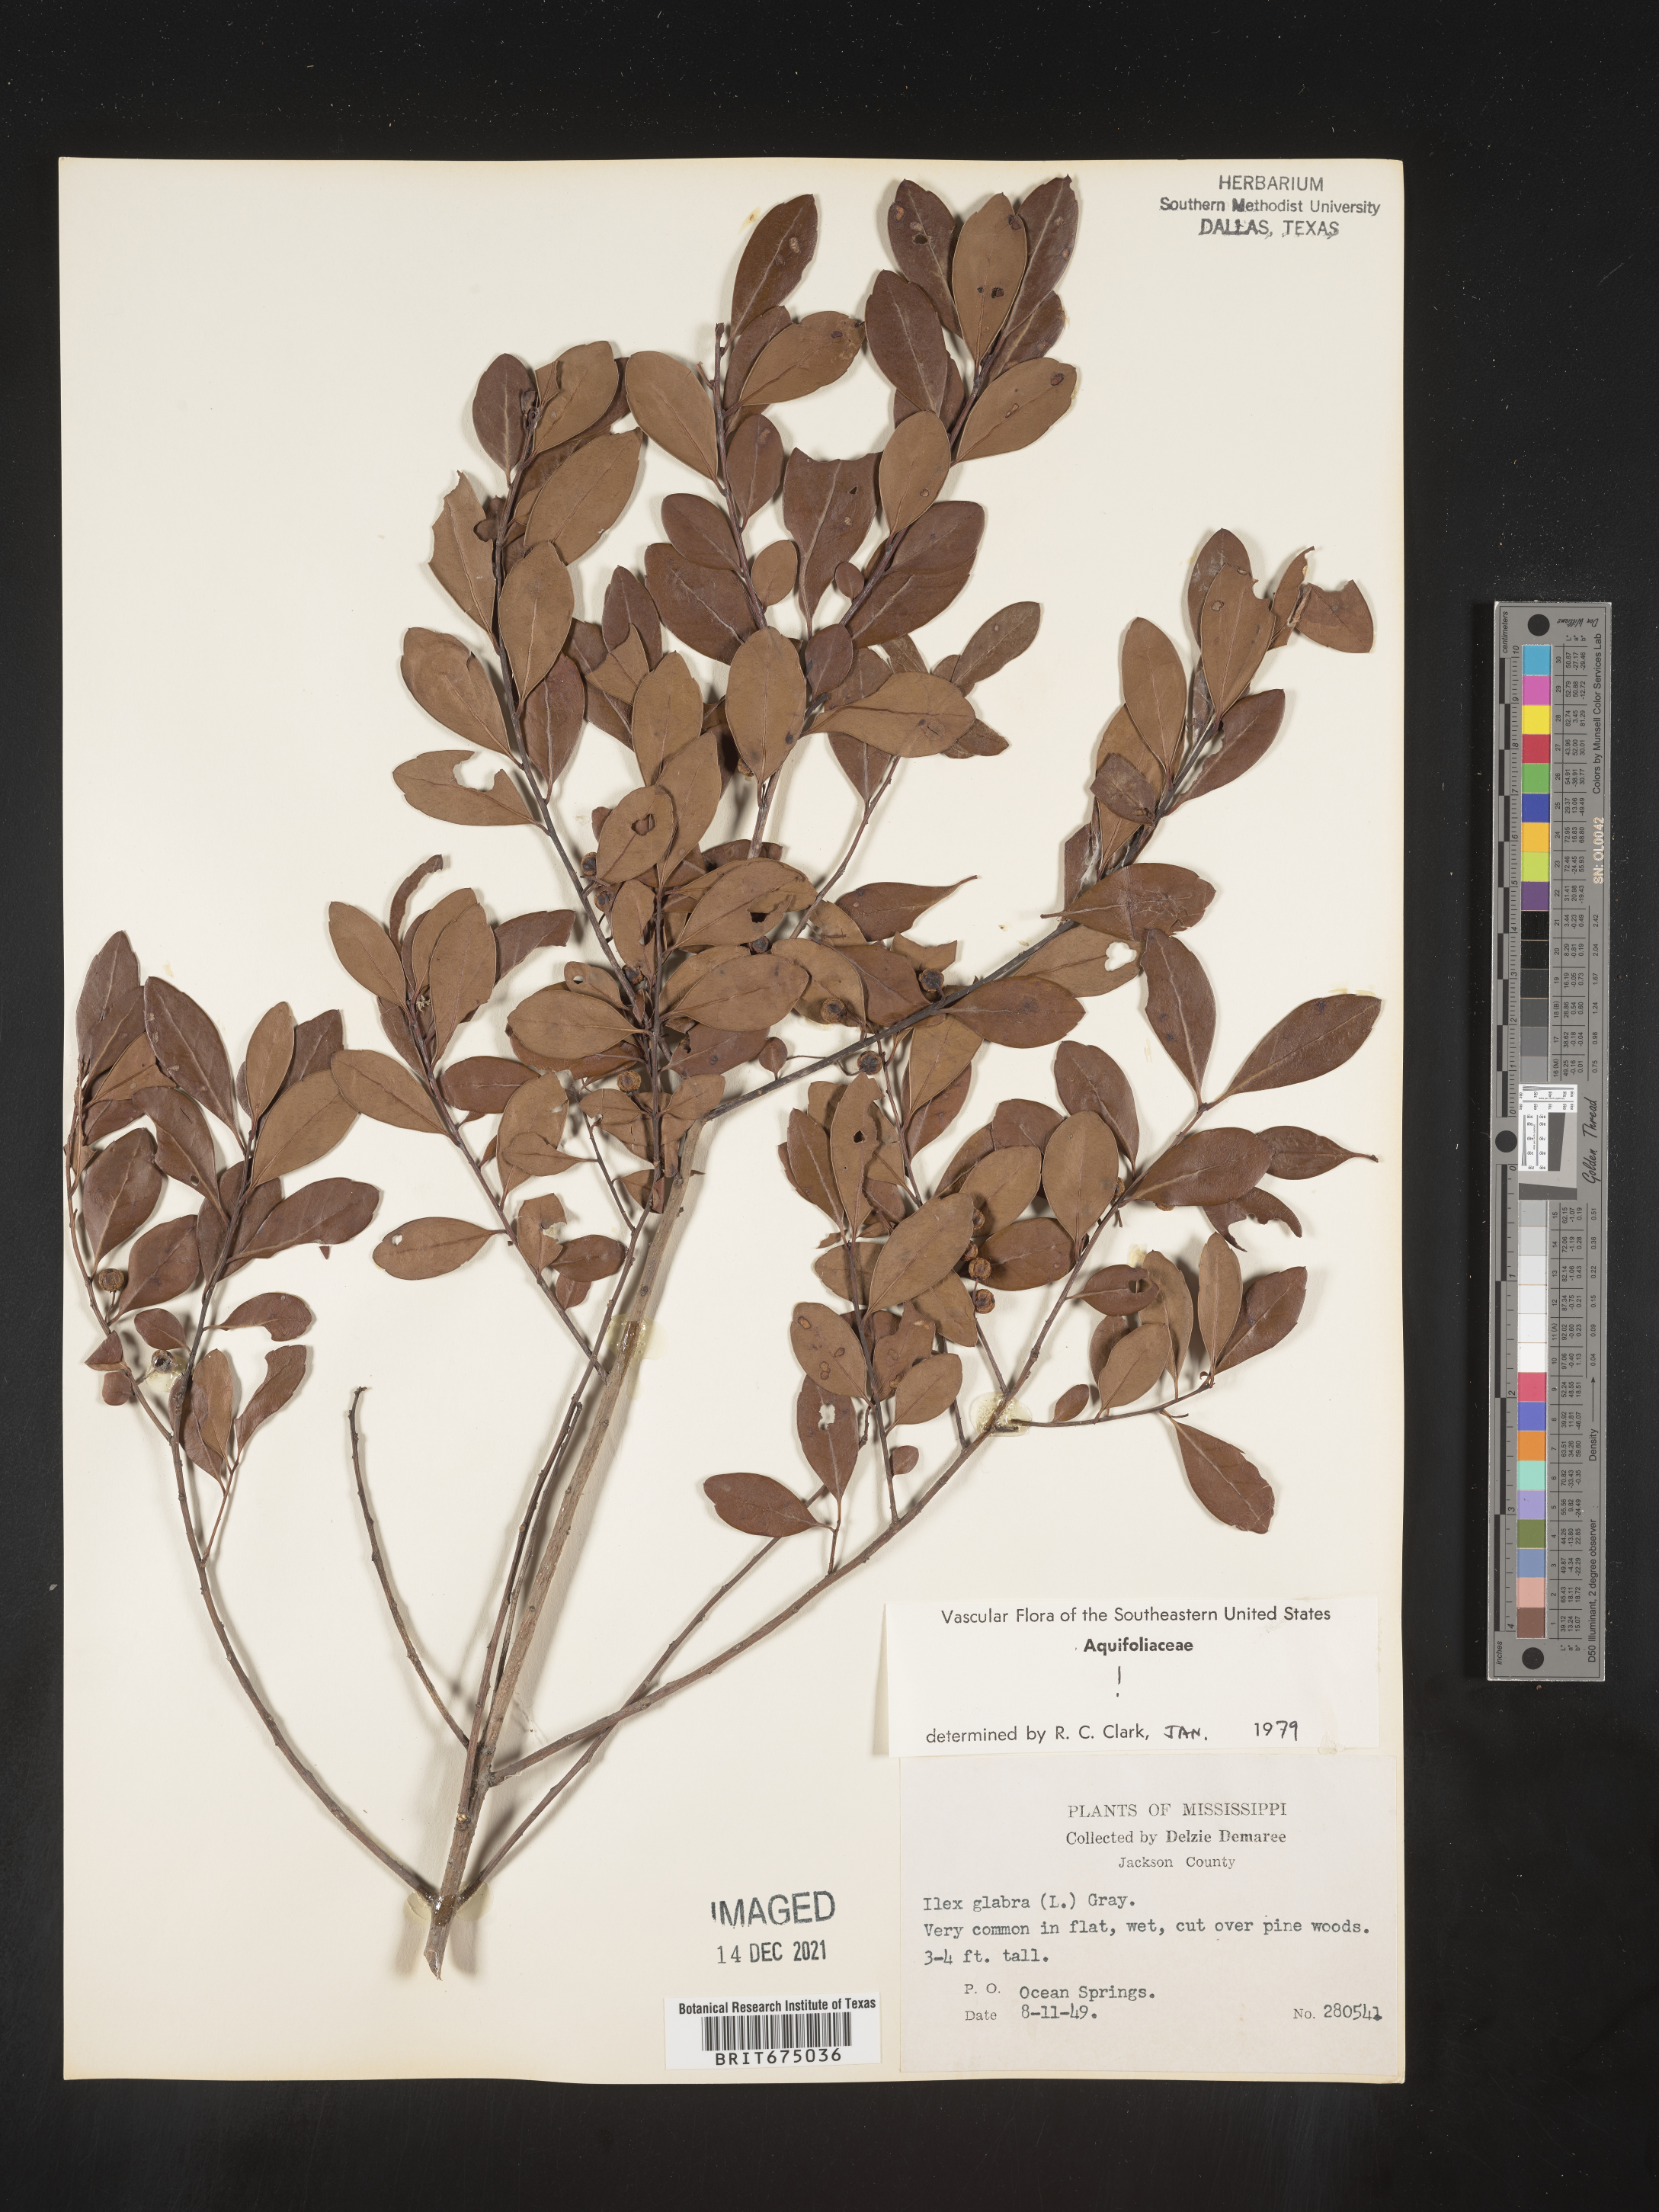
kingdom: Plantae
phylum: Tracheophyta
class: Magnoliopsida
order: Aquifoliales
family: Aquifoliaceae
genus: Ilex
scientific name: Ilex glabra
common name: Bitter gallberry
